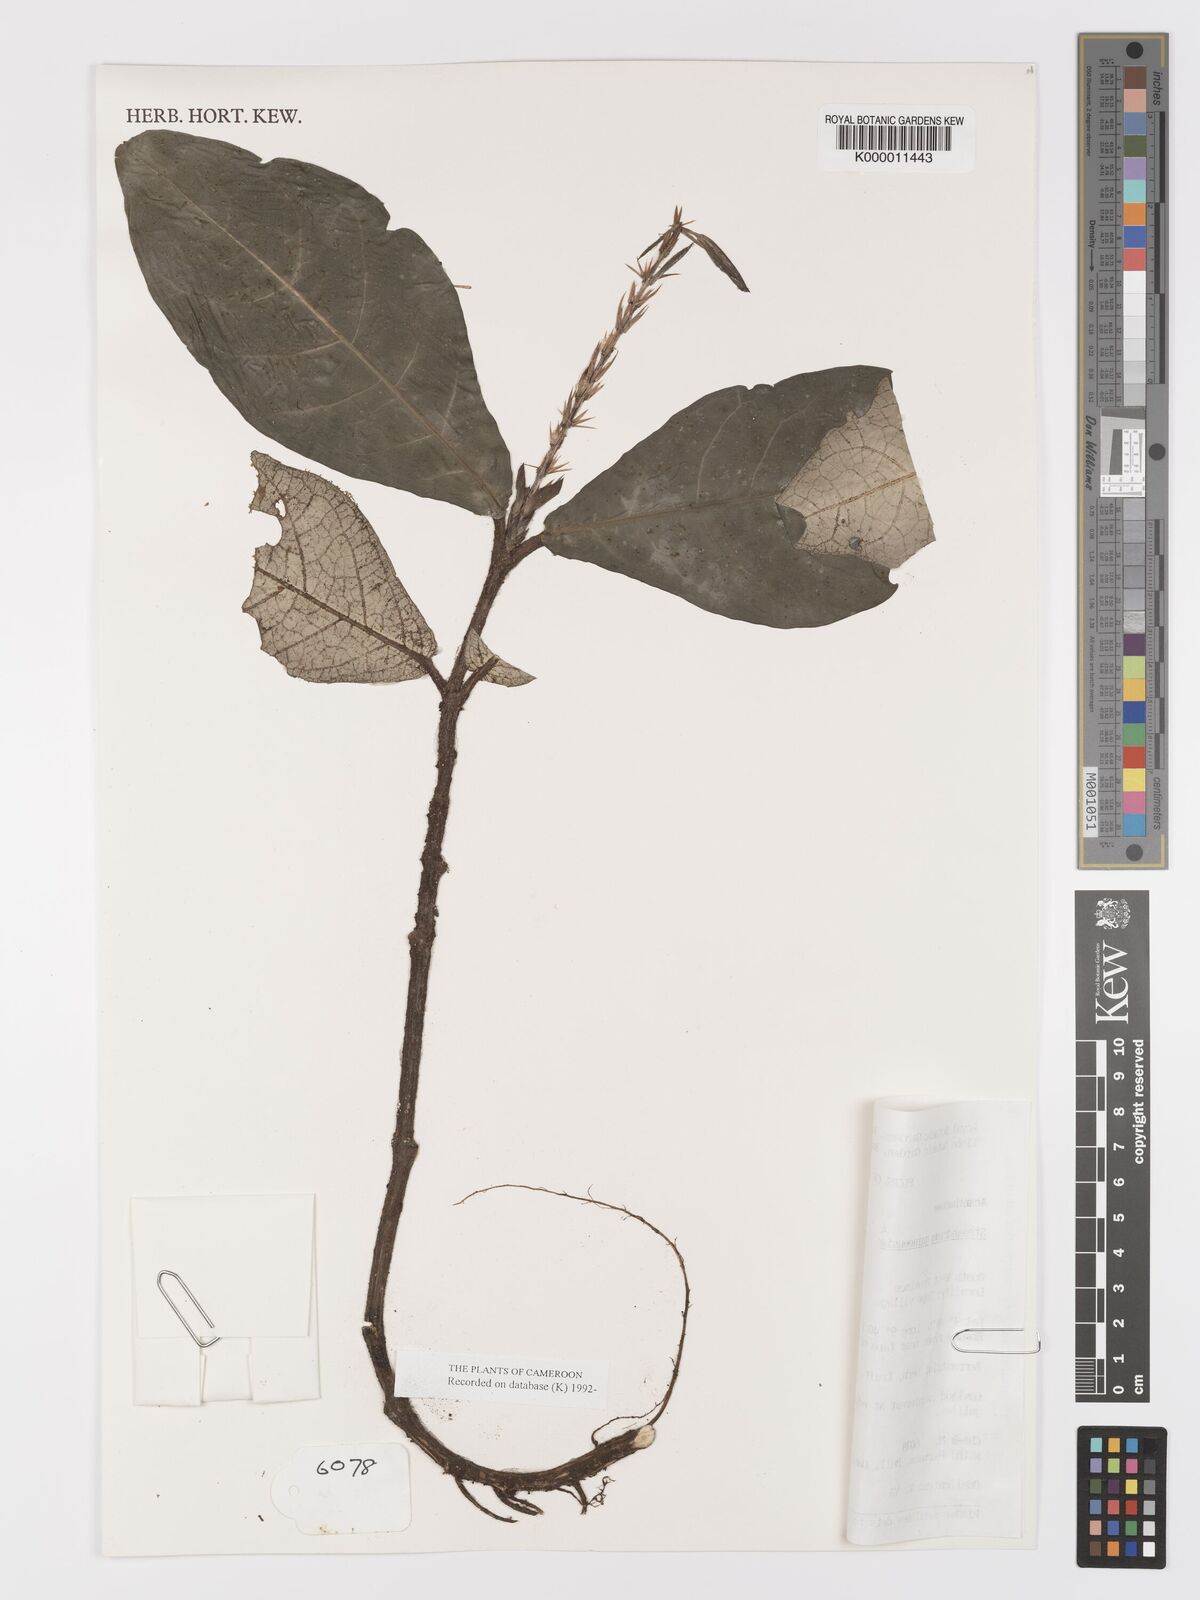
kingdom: Plantae
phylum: Tracheophyta
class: Magnoliopsida
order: Lamiales
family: Acanthaceae
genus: Stenandriopsis
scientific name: Stenandriopsis guineensis
